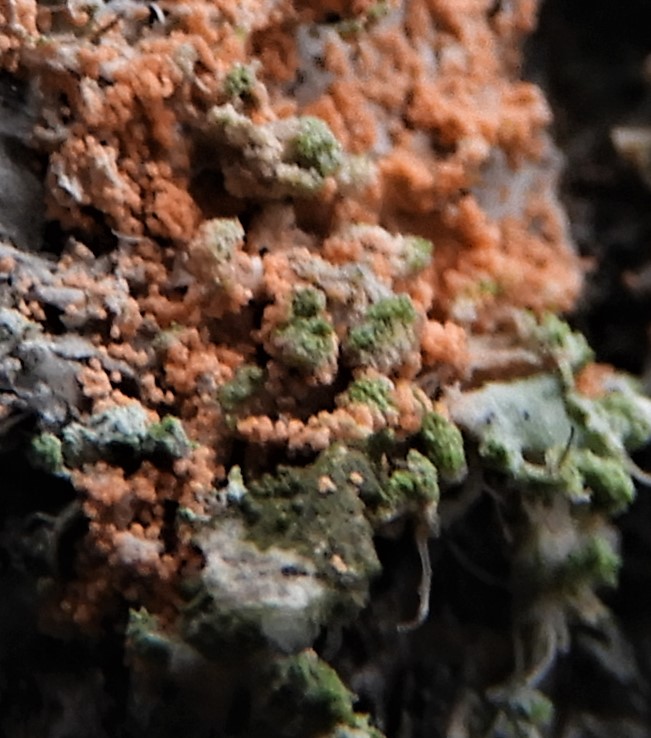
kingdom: Fungi
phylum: Basidiomycota
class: Agaricomycetes
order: Corticiales
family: Corticiaceae
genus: Erythricium
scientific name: Erythricium aurantiacum
